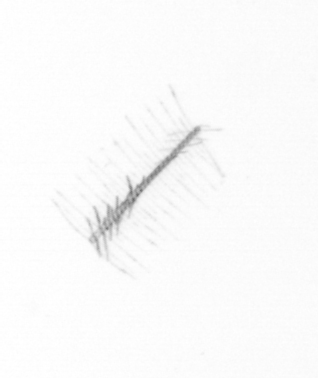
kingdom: Chromista
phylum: Ochrophyta
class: Bacillariophyceae
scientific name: Bacillariophyceae
